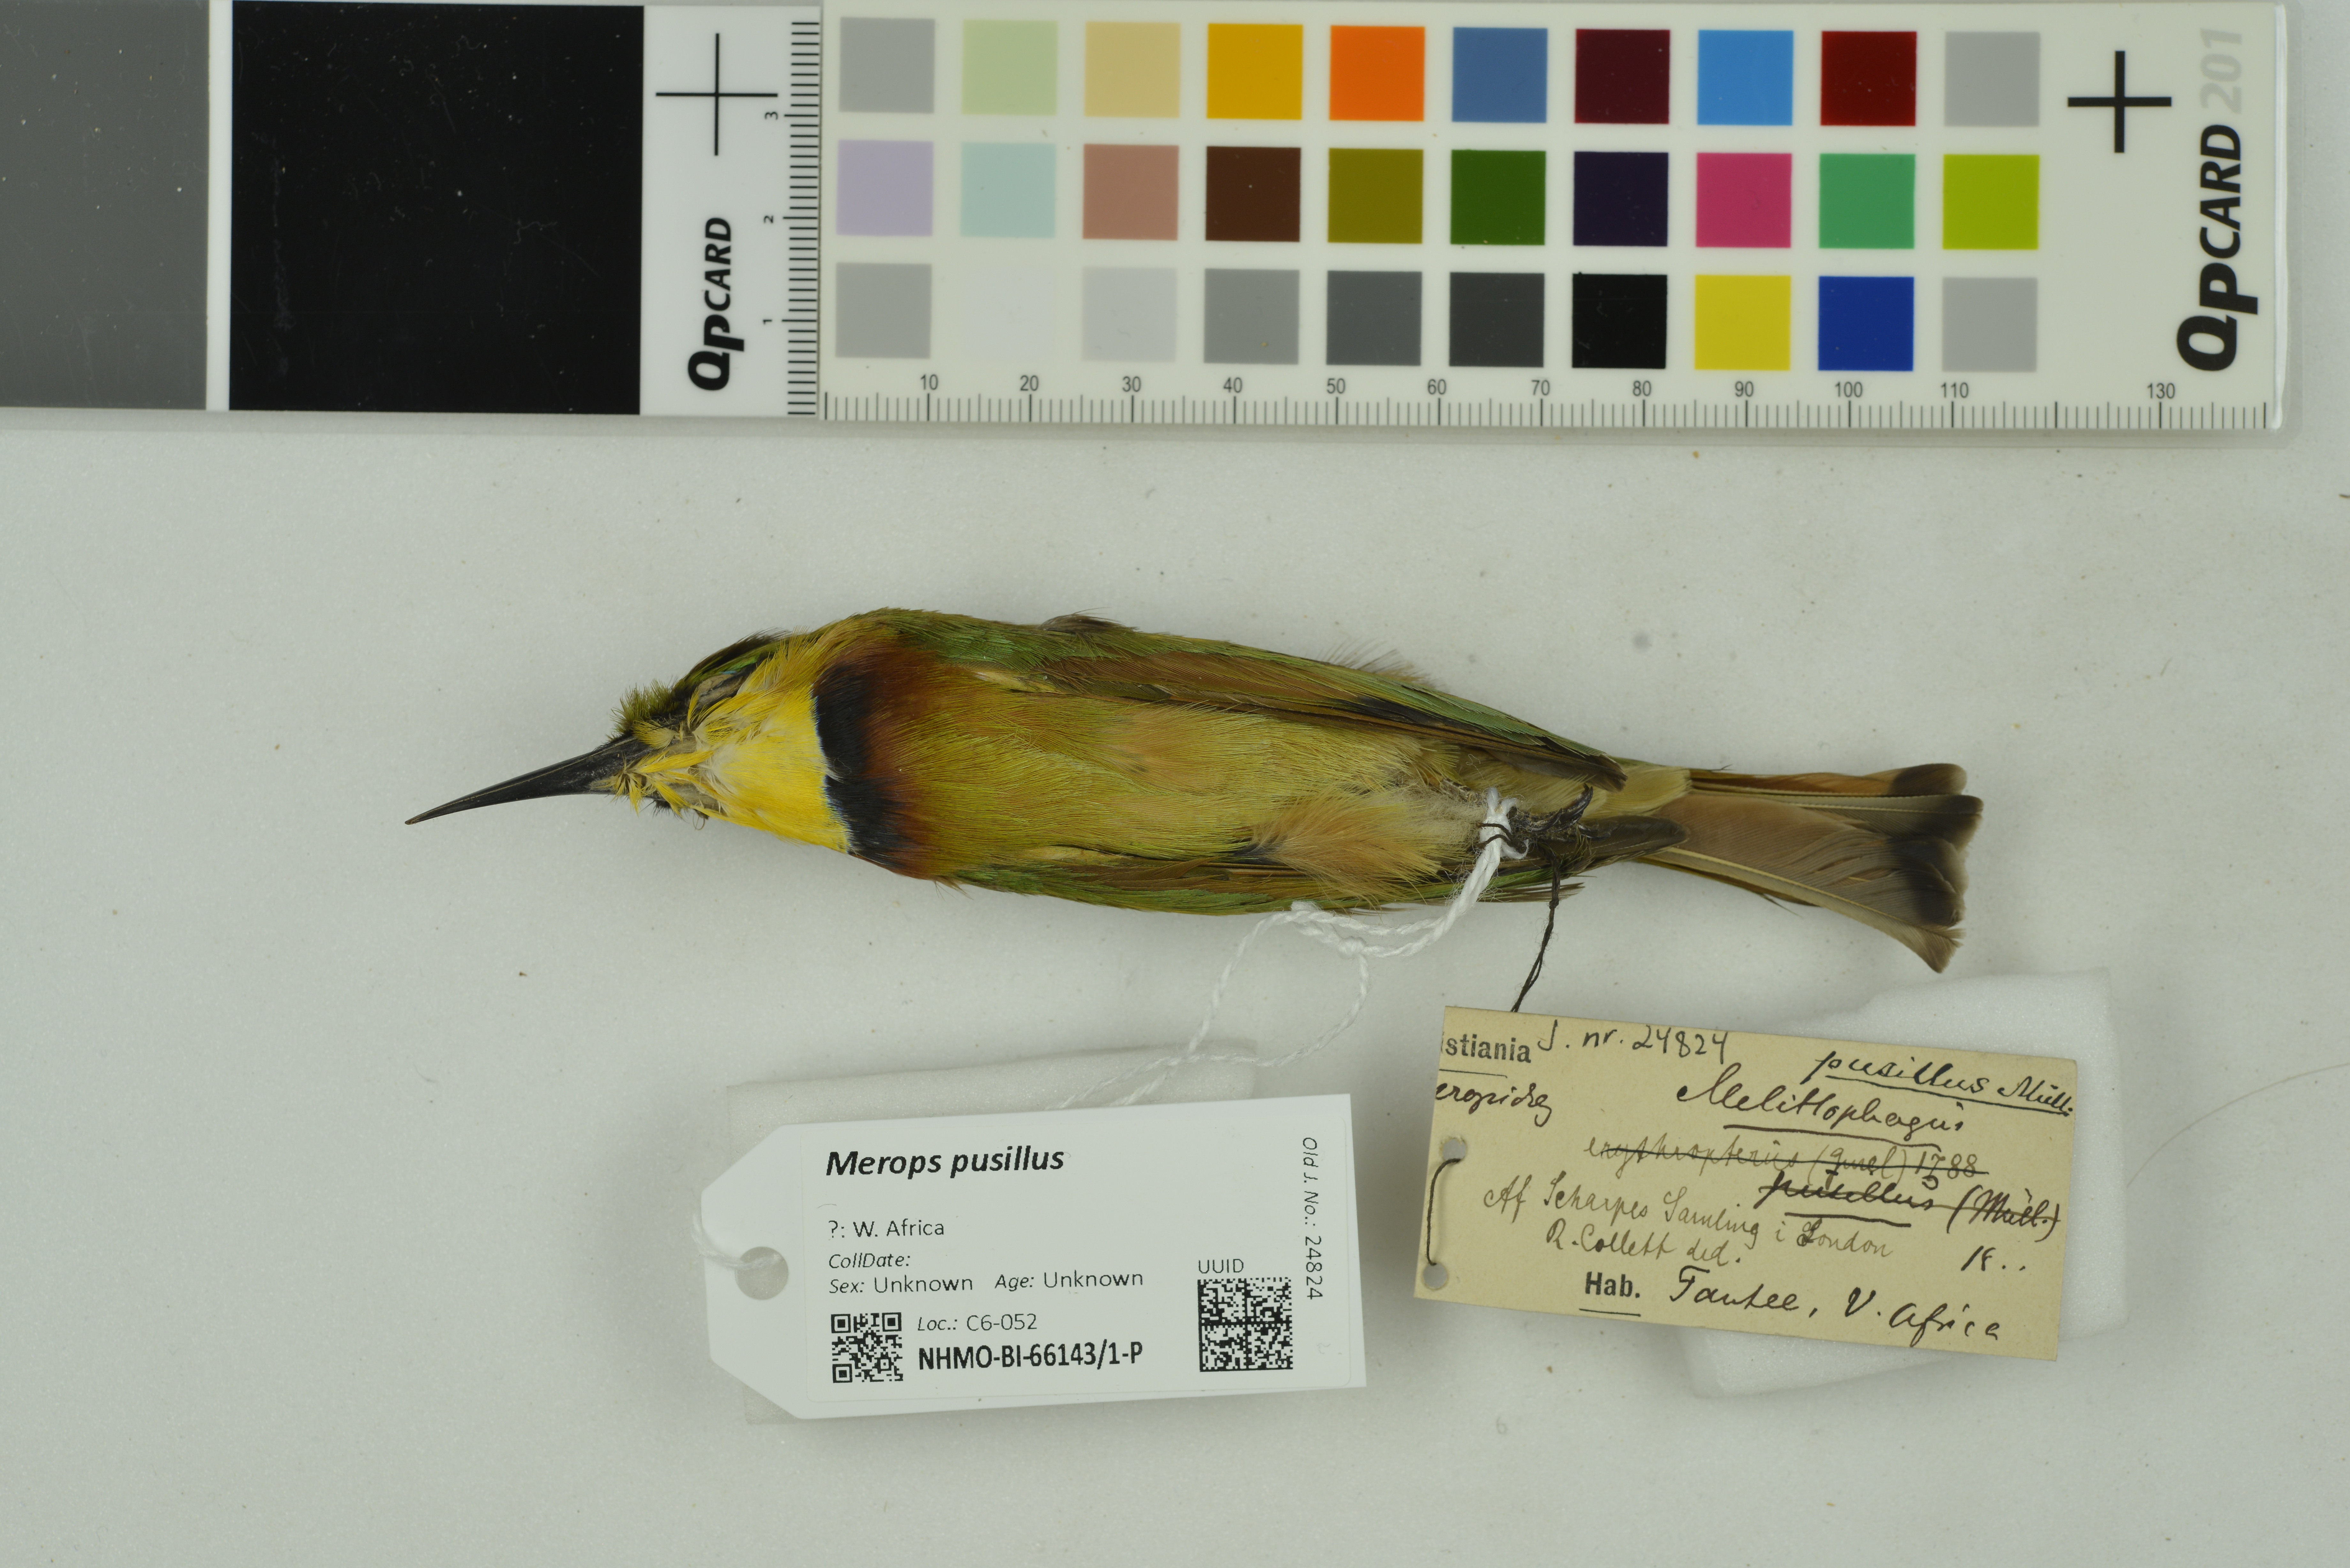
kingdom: Animalia
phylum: Chordata
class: Aves
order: Coraciiformes
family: Meropidae
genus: Merops
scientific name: Merops pusillus
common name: Little bee-eater
